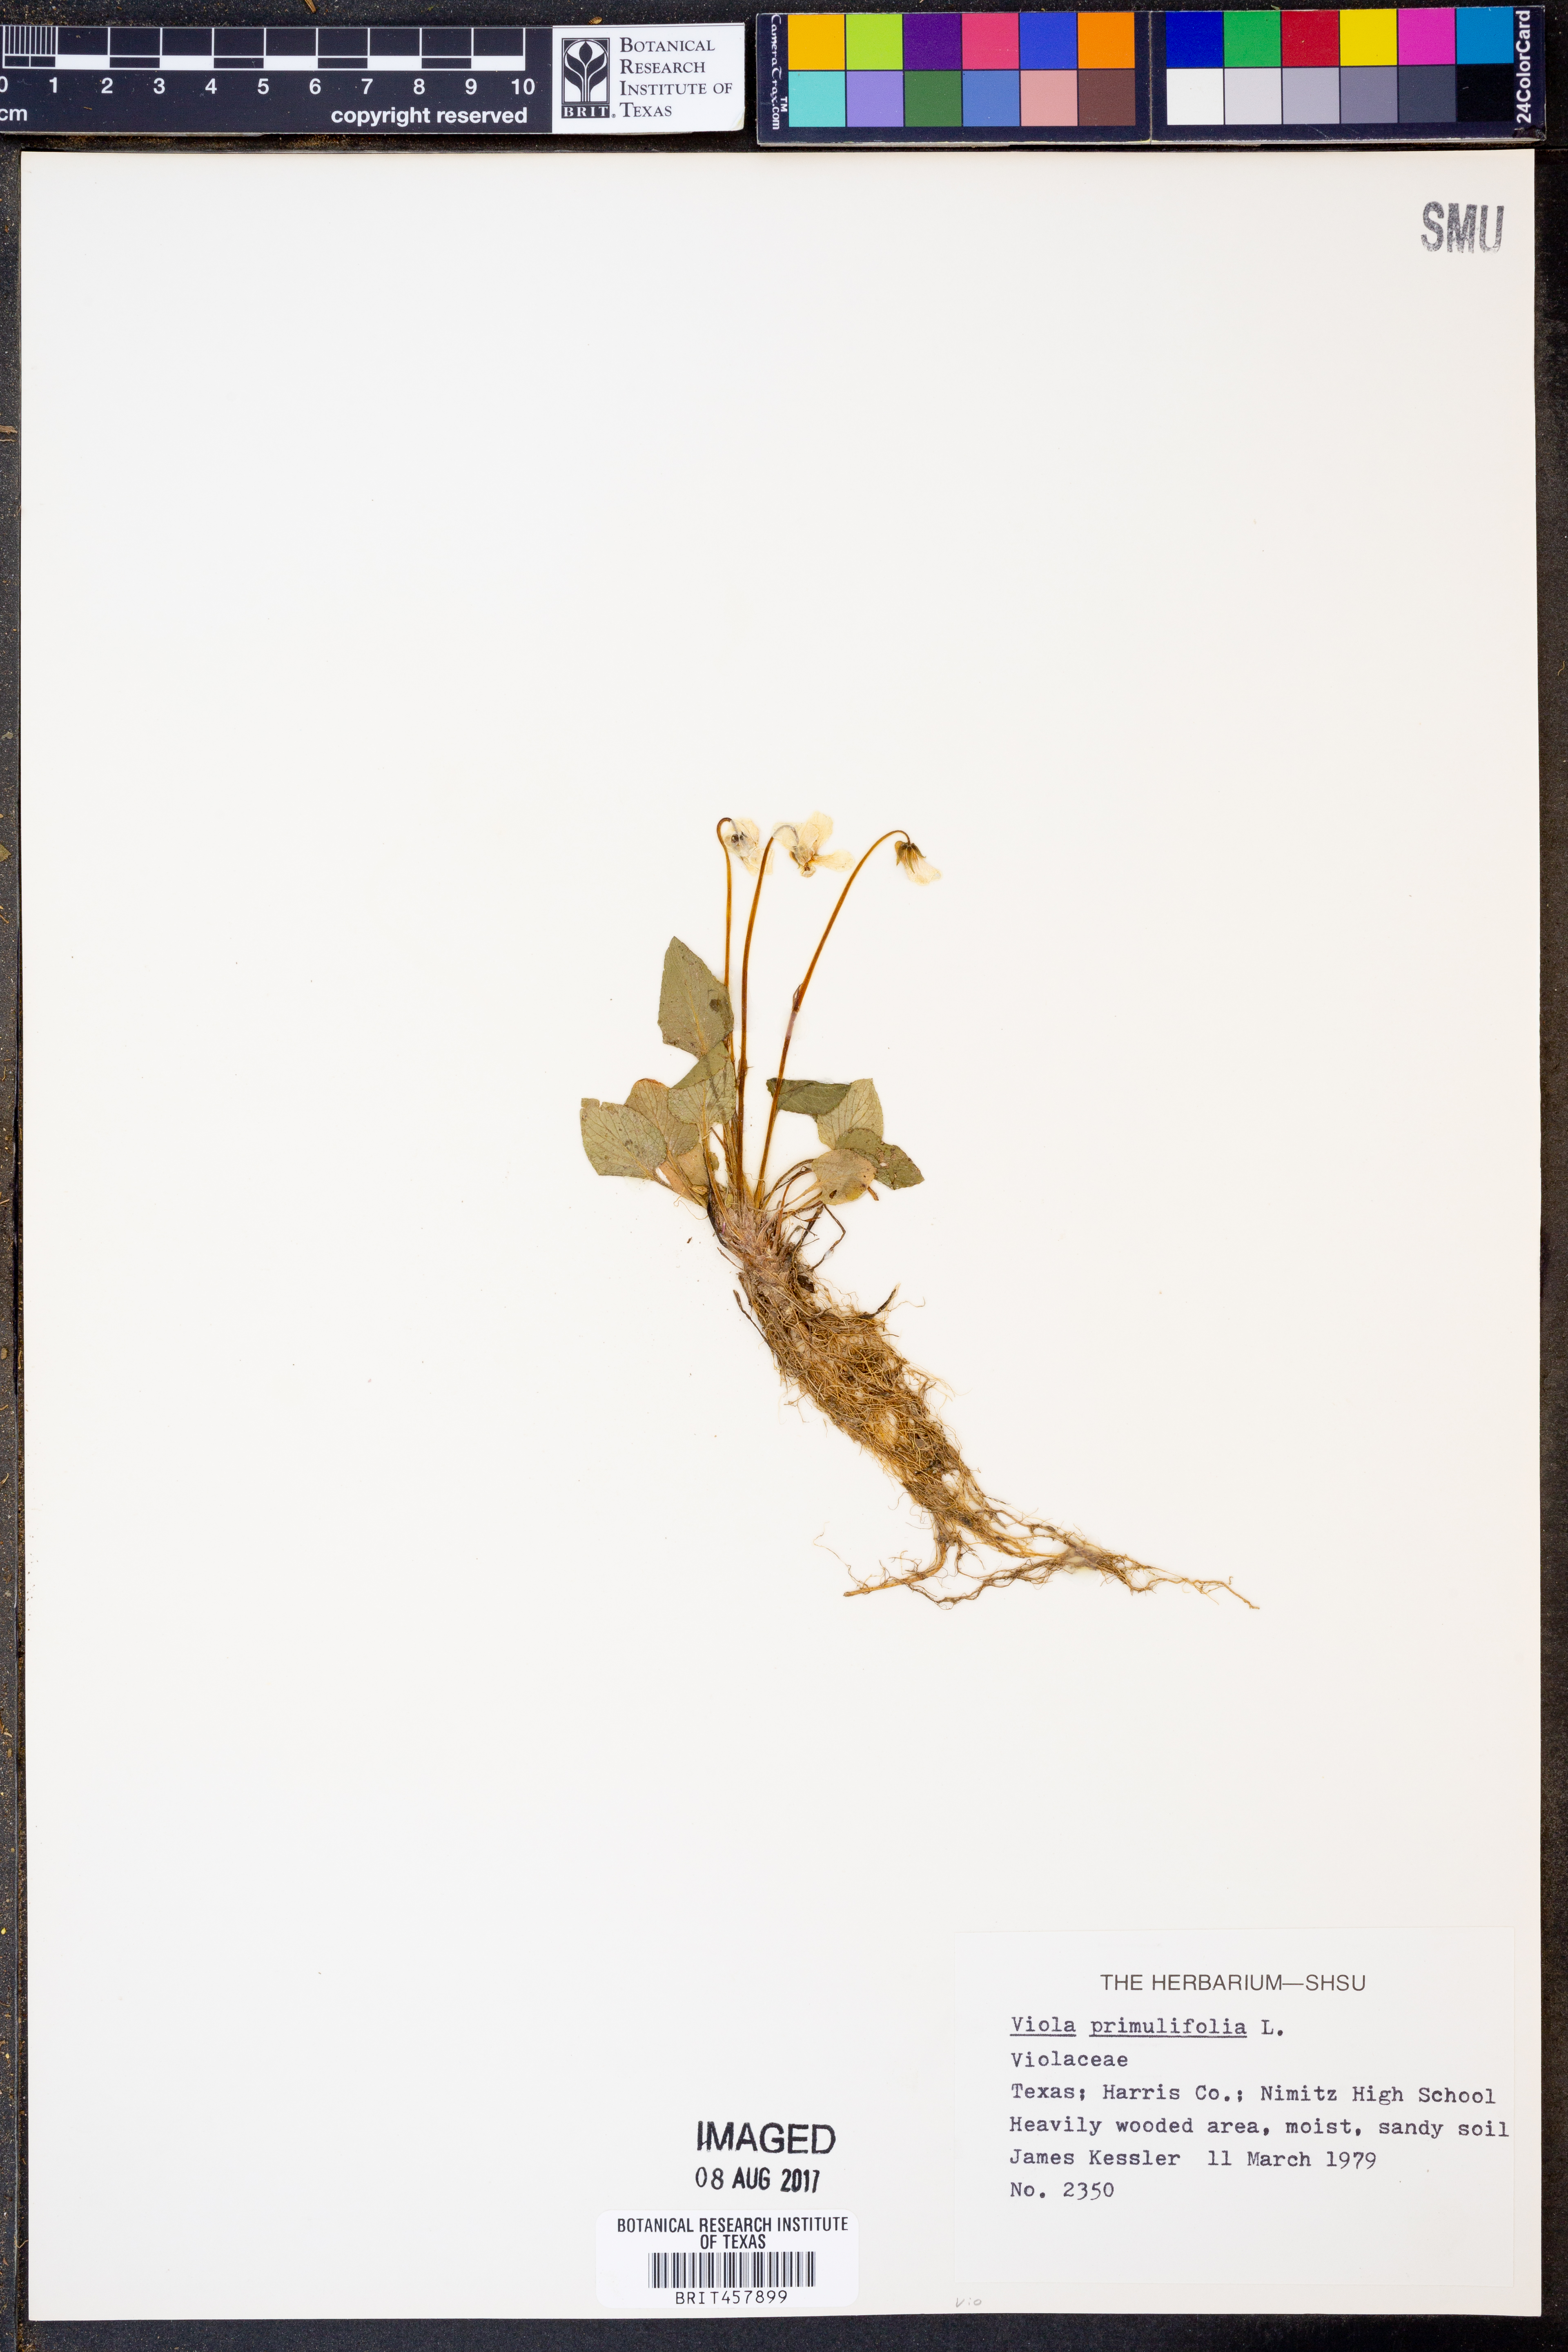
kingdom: Plantae
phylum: Tracheophyta
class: Magnoliopsida
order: Malpighiales
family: Violaceae
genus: Viola
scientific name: Viola primulifolia
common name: Primrose-leaf violet
